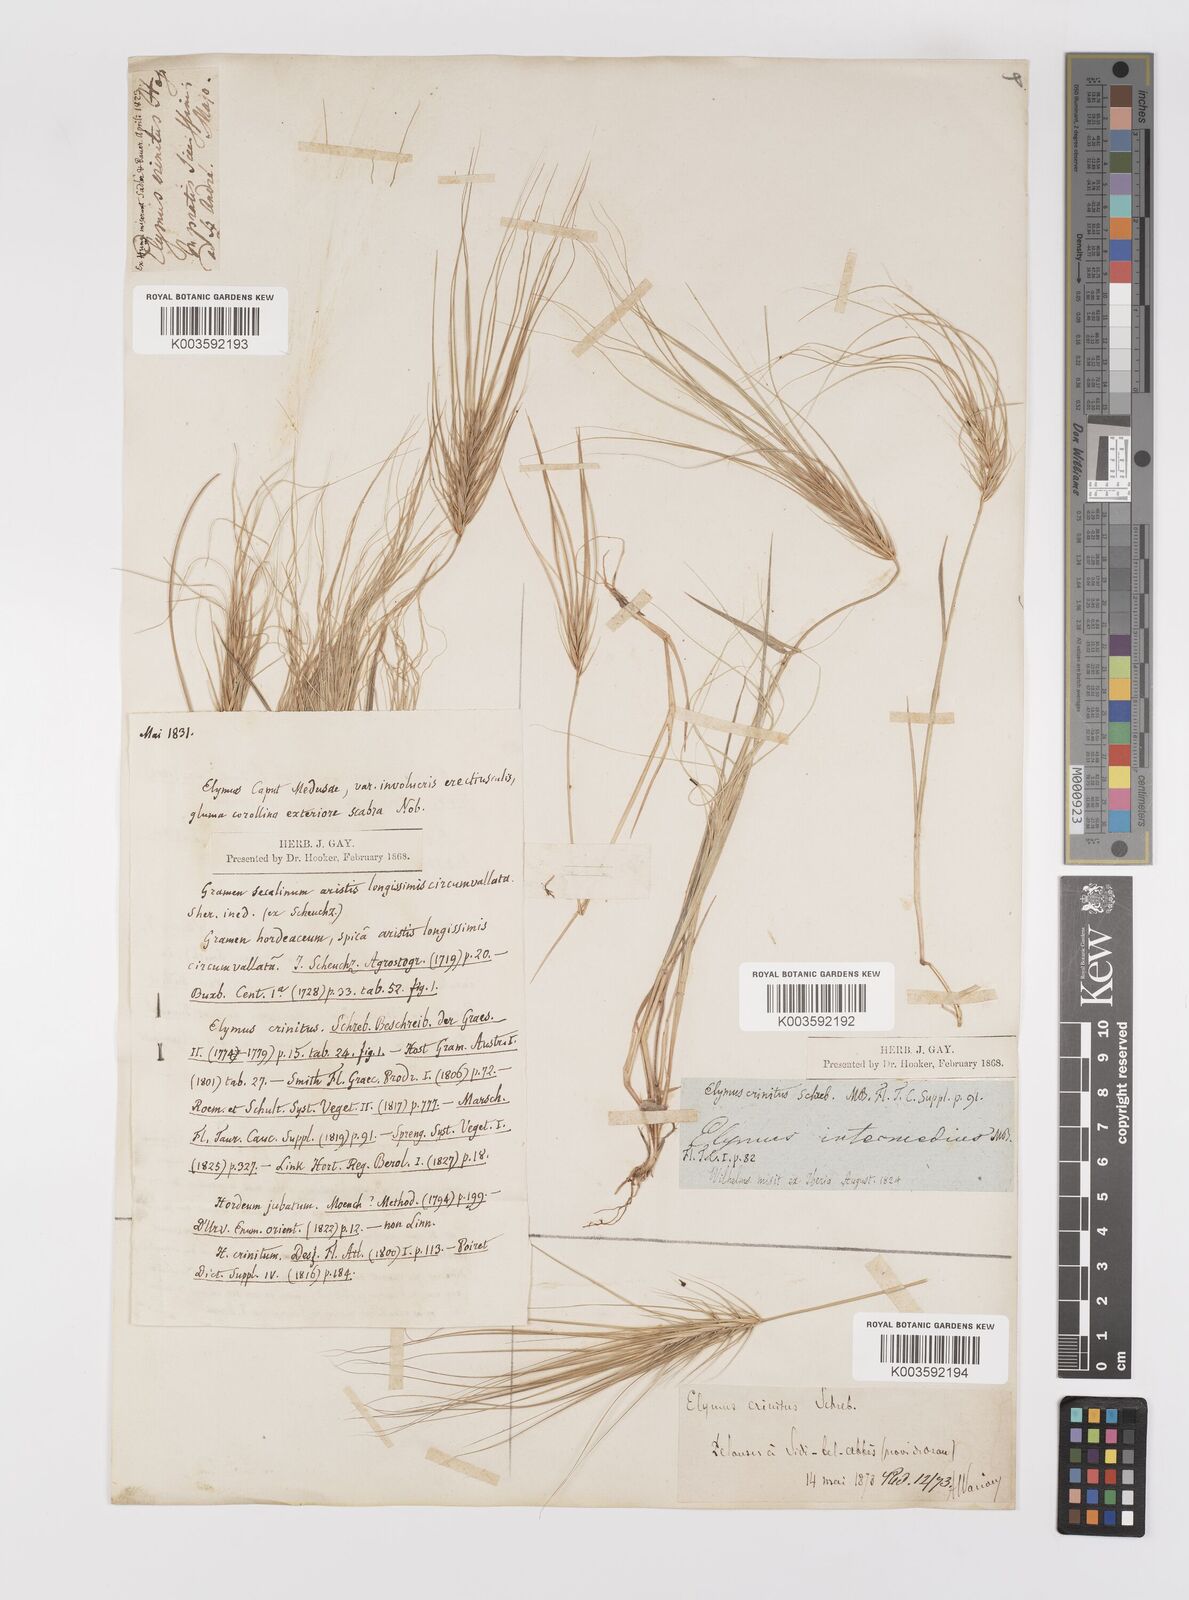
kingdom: Plantae
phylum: Tracheophyta
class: Liliopsida
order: Poales
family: Poaceae
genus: Taeniatherum
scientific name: Taeniatherum caput-medusae
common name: Medusahead
